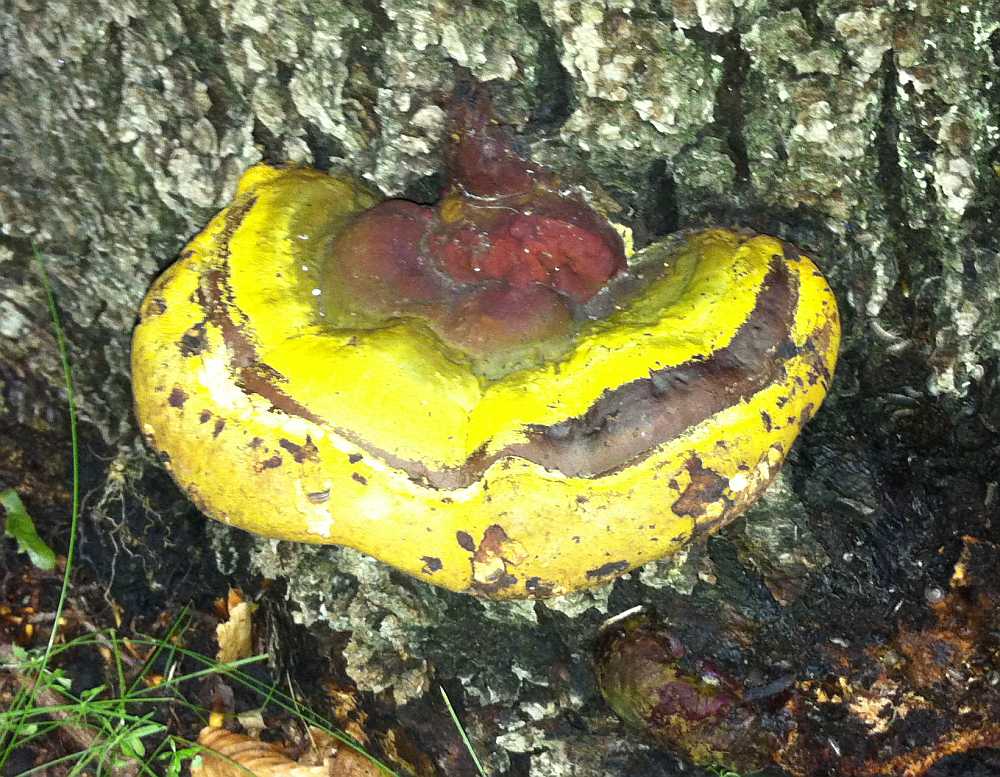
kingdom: Fungi
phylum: Basidiomycota
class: Agaricomycetes
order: Polyporales
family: Polyporaceae
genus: Ganoderma
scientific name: Ganoderma resinaceum
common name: gyldenbrun lakporesvamp
